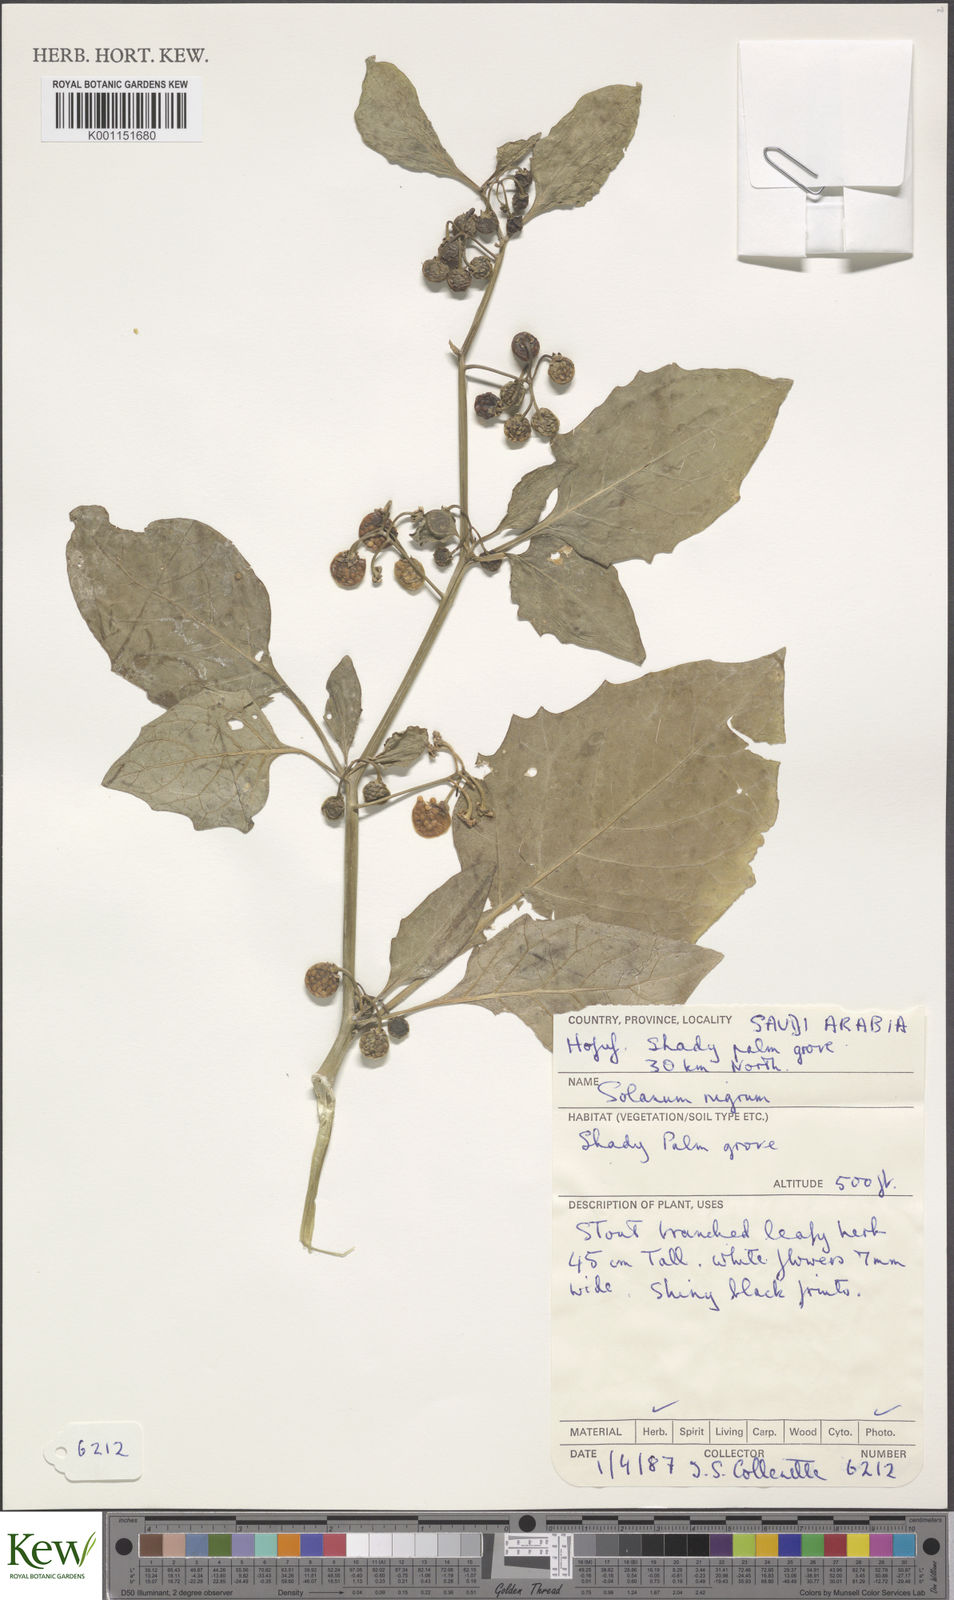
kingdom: Plantae
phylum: Tracheophyta
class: Magnoliopsida
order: Solanales
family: Solanaceae
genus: Solanum
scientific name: Solanum nigrum
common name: Black nightshade
